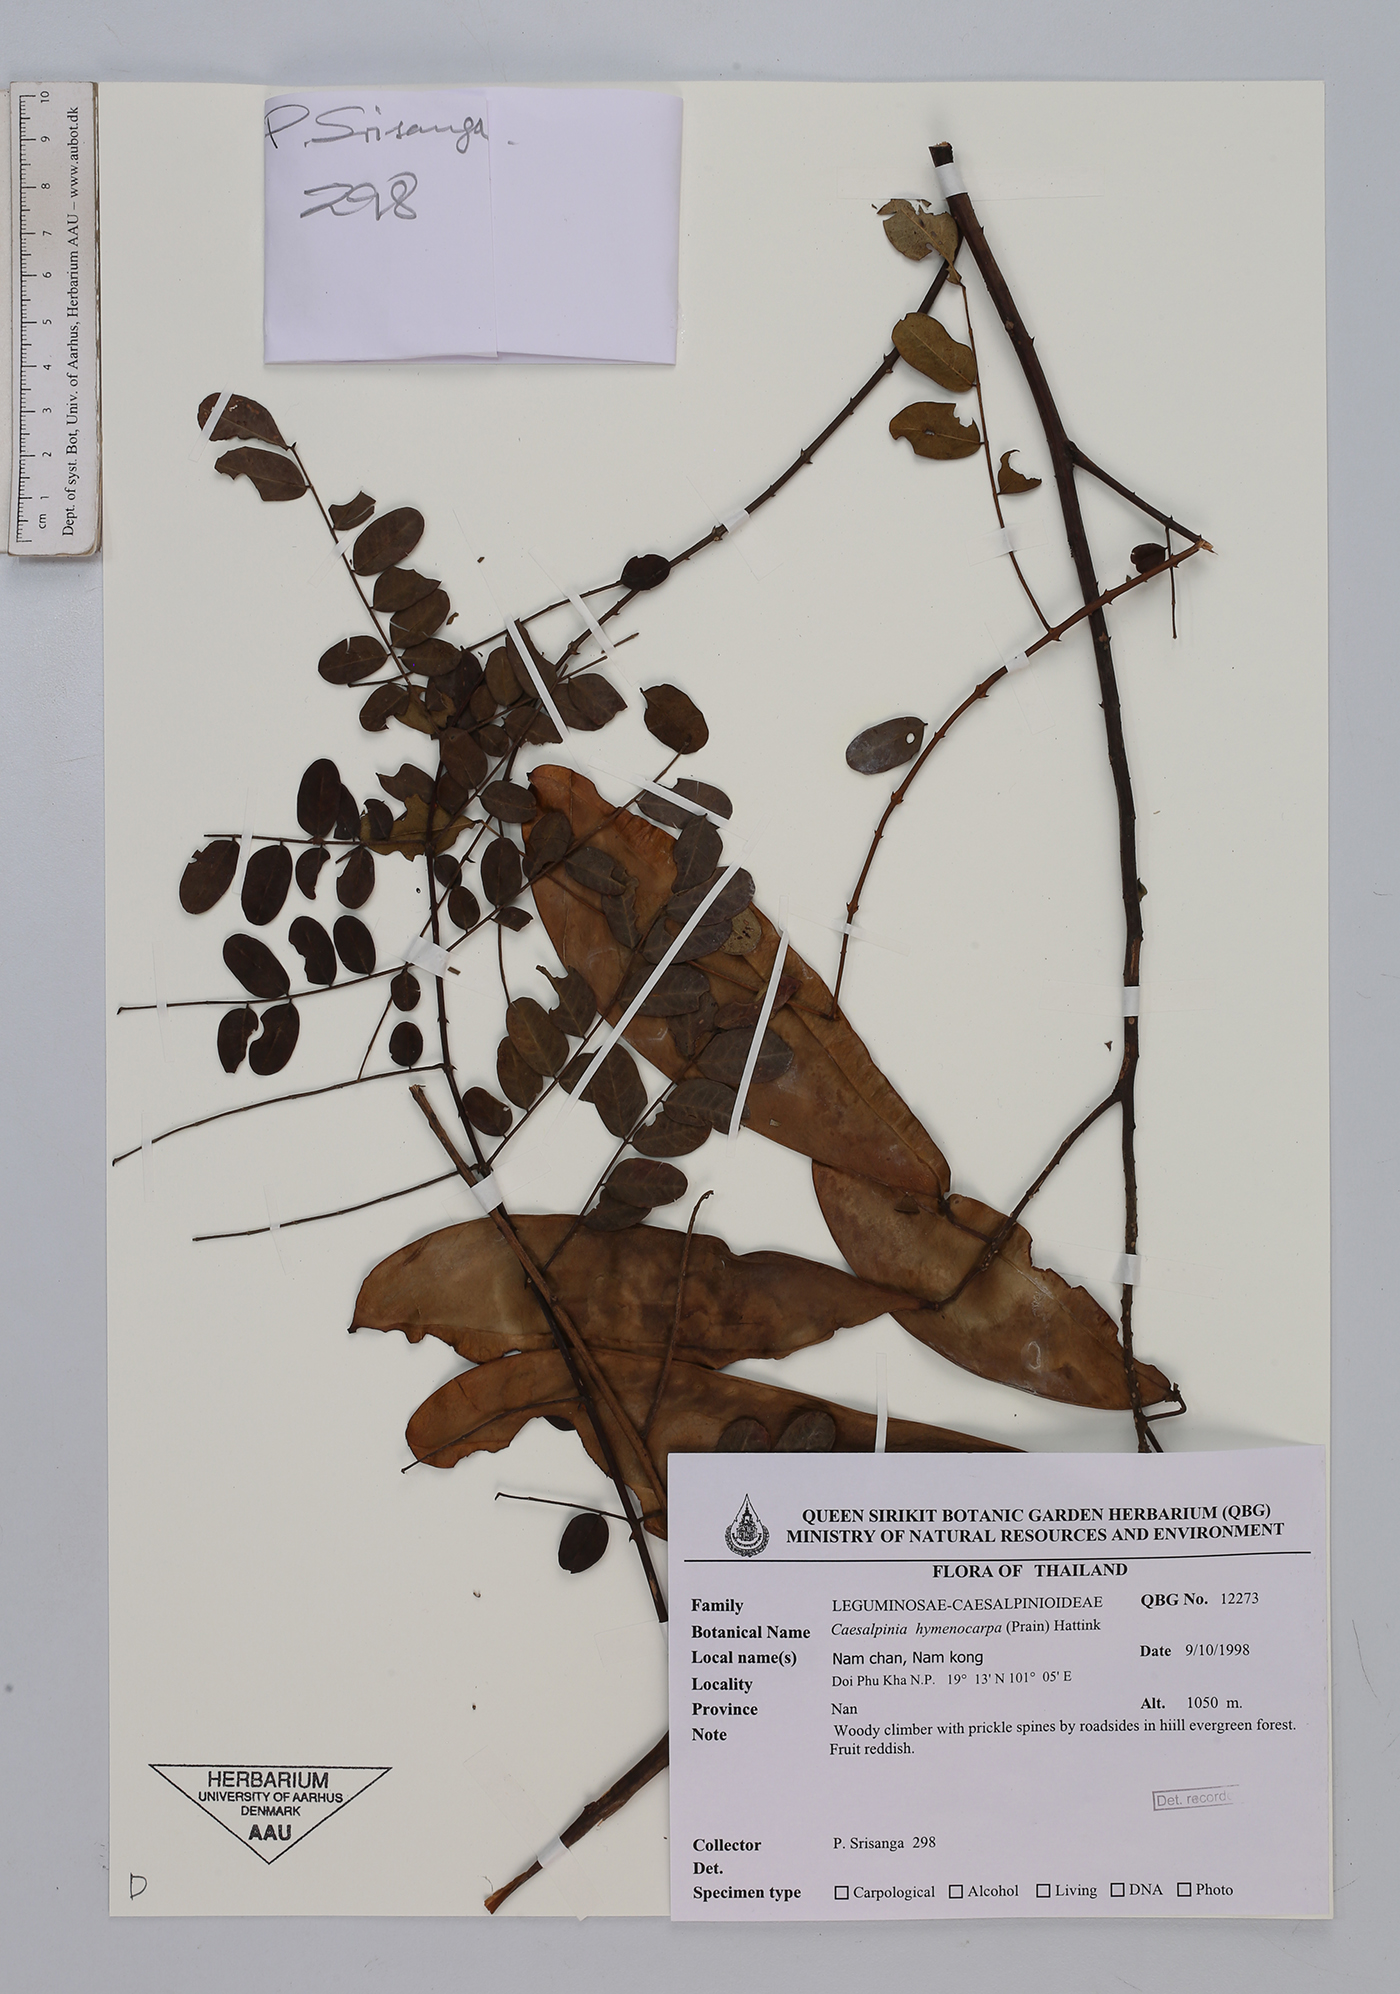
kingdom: Plantae
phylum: Tracheophyta
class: Magnoliopsida
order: Fabales
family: Fabaceae
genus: Mezoneuron
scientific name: Mezoneuron hymenocarpum
